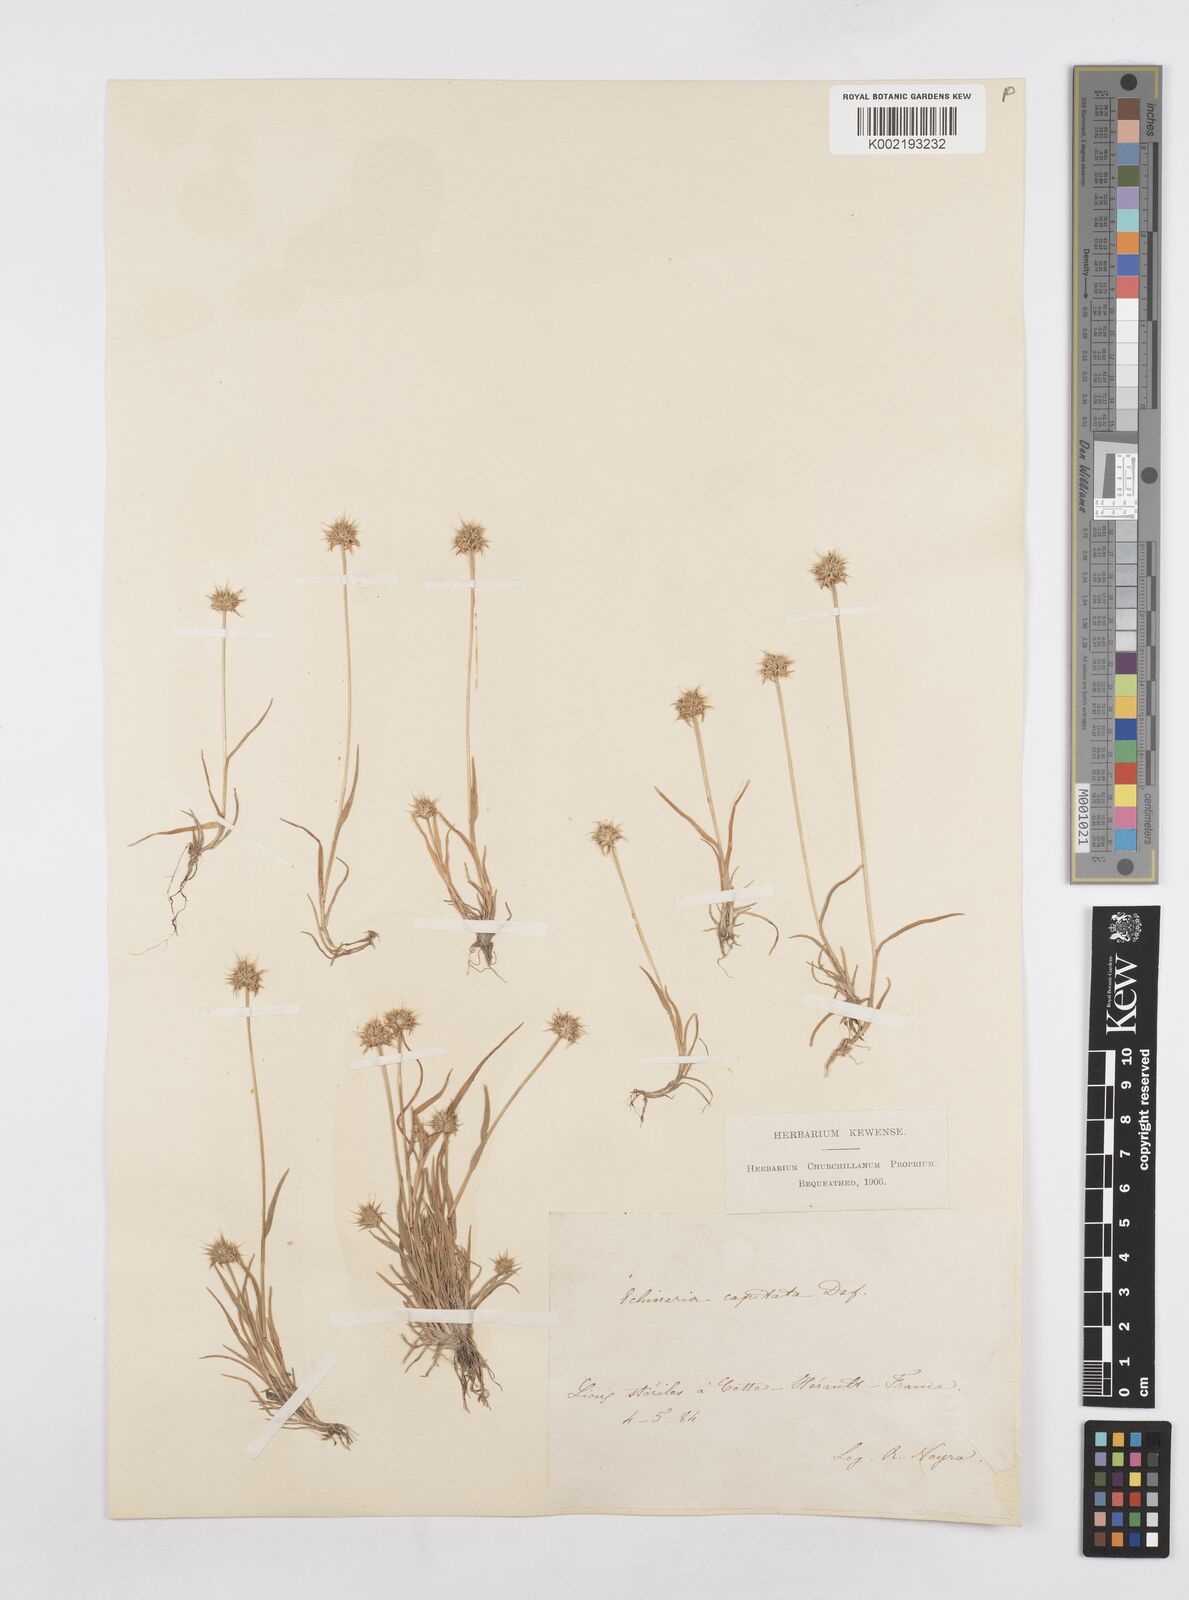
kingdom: Plantae
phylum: Tracheophyta
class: Liliopsida
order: Poales
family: Poaceae
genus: Echinaria
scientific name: Echinaria capitata
